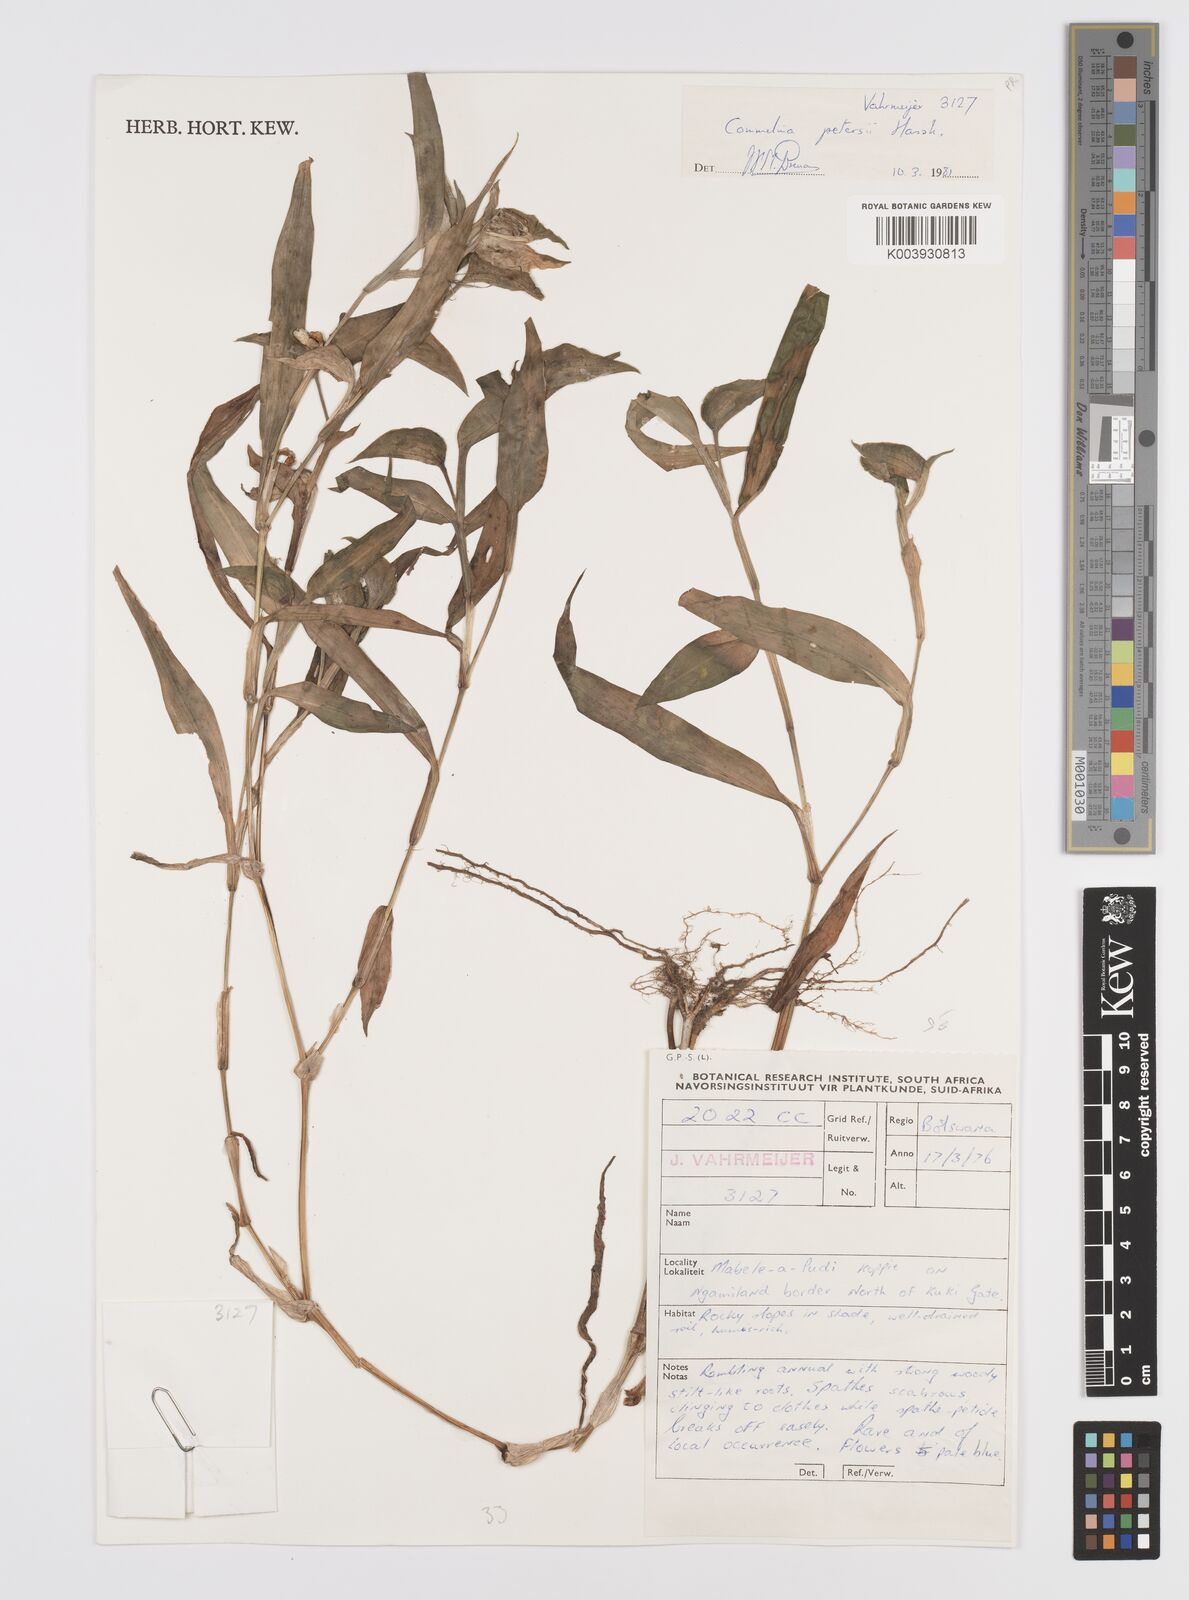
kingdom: Plantae
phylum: Tracheophyta
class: Liliopsida
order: Commelinales
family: Commelinaceae
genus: Commelina
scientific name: Commelina petersii
